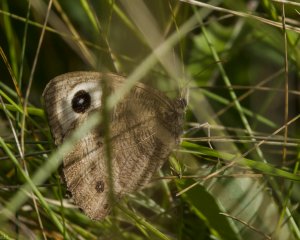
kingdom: Animalia
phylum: Arthropoda
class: Insecta
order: Lepidoptera
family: Nymphalidae
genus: Cercyonis
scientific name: Cercyonis pegala
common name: Common Wood-Nymph
